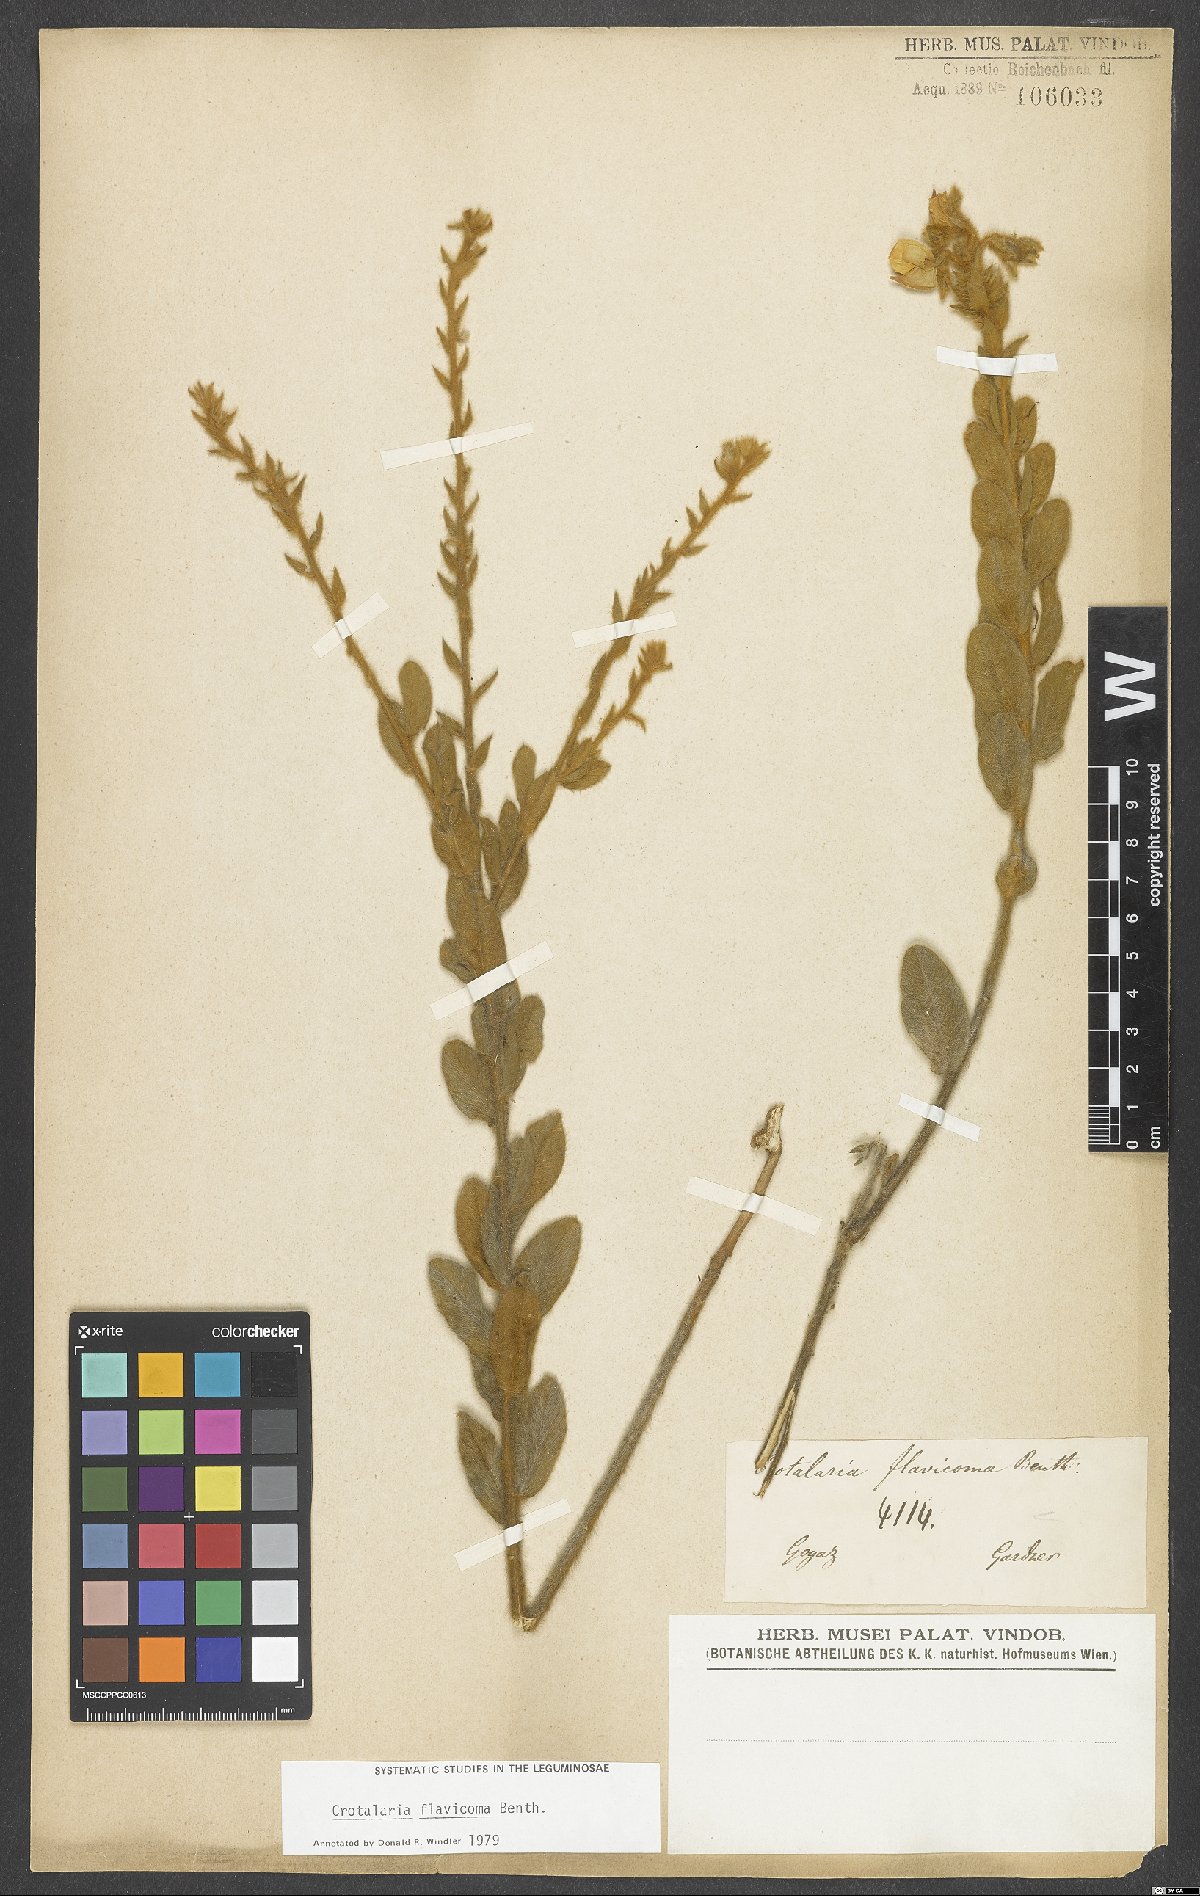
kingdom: Plantae
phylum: Tracheophyta
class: Magnoliopsida
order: Fabales
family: Fabaceae
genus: Crotalaria
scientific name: Crotalaria flavicoma
